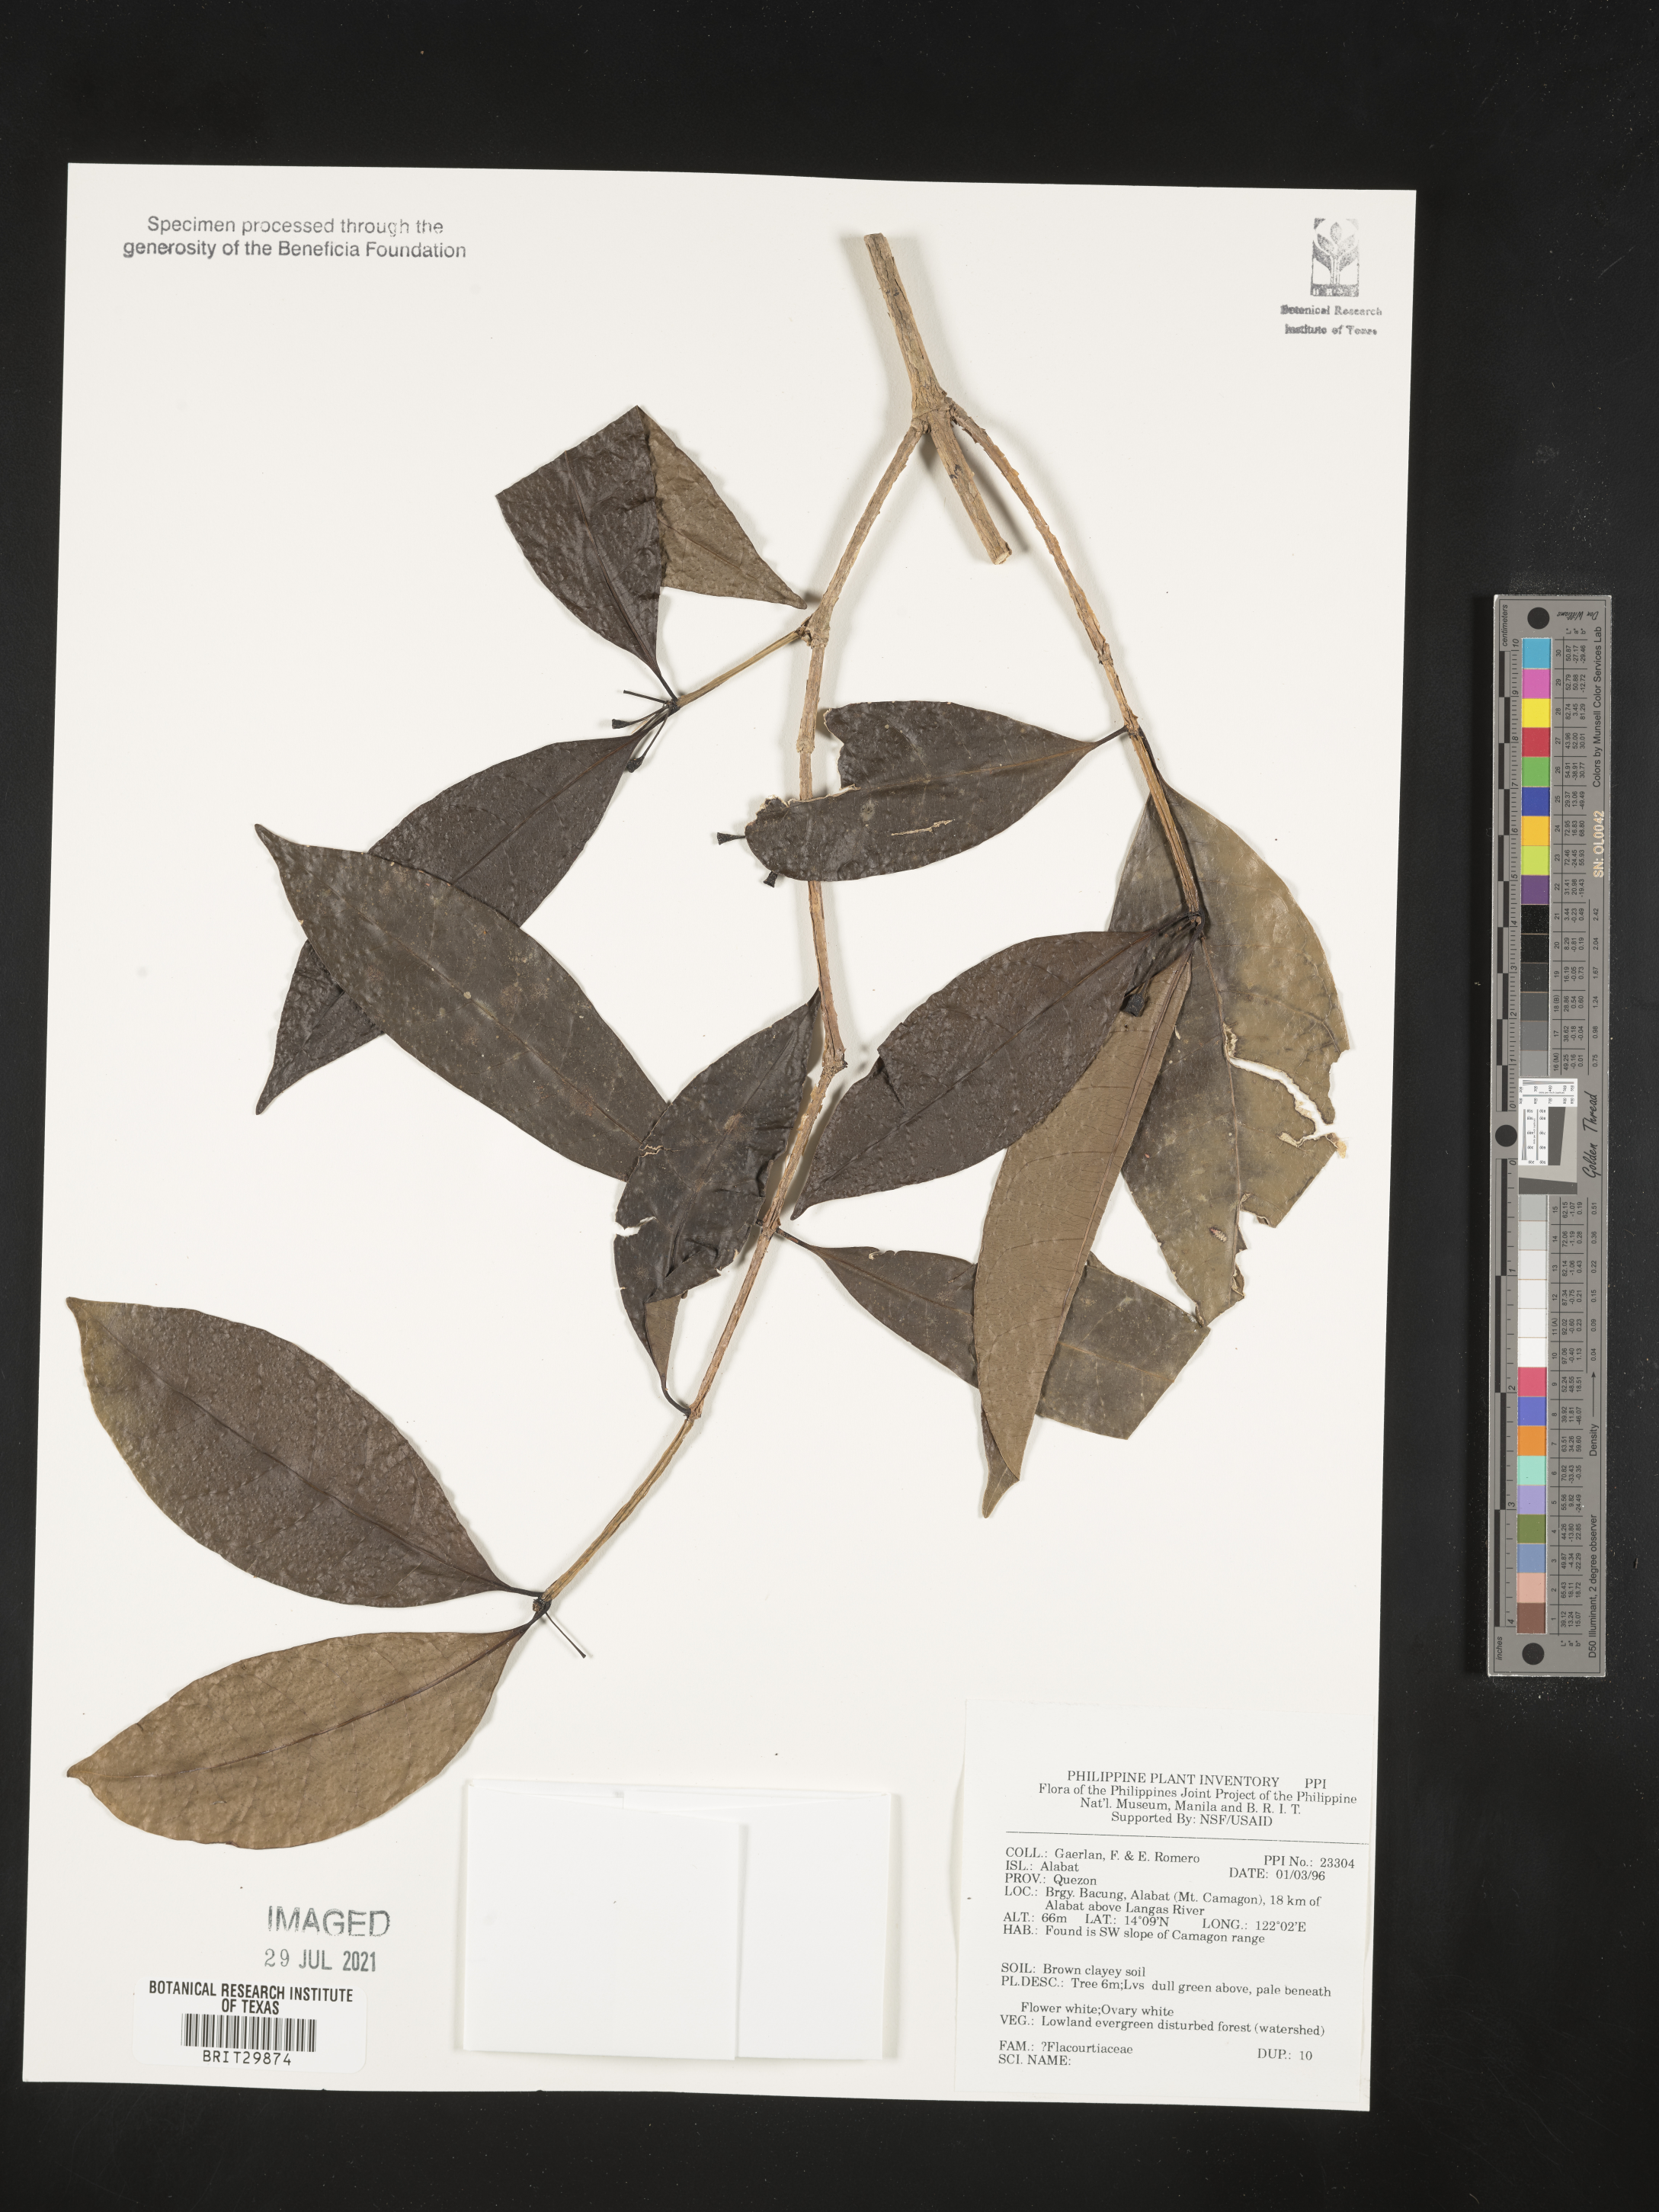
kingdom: Plantae
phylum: Tracheophyta
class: Magnoliopsida
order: Malpighiales
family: Flacourtiaceae
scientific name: Flacourtiaceae
